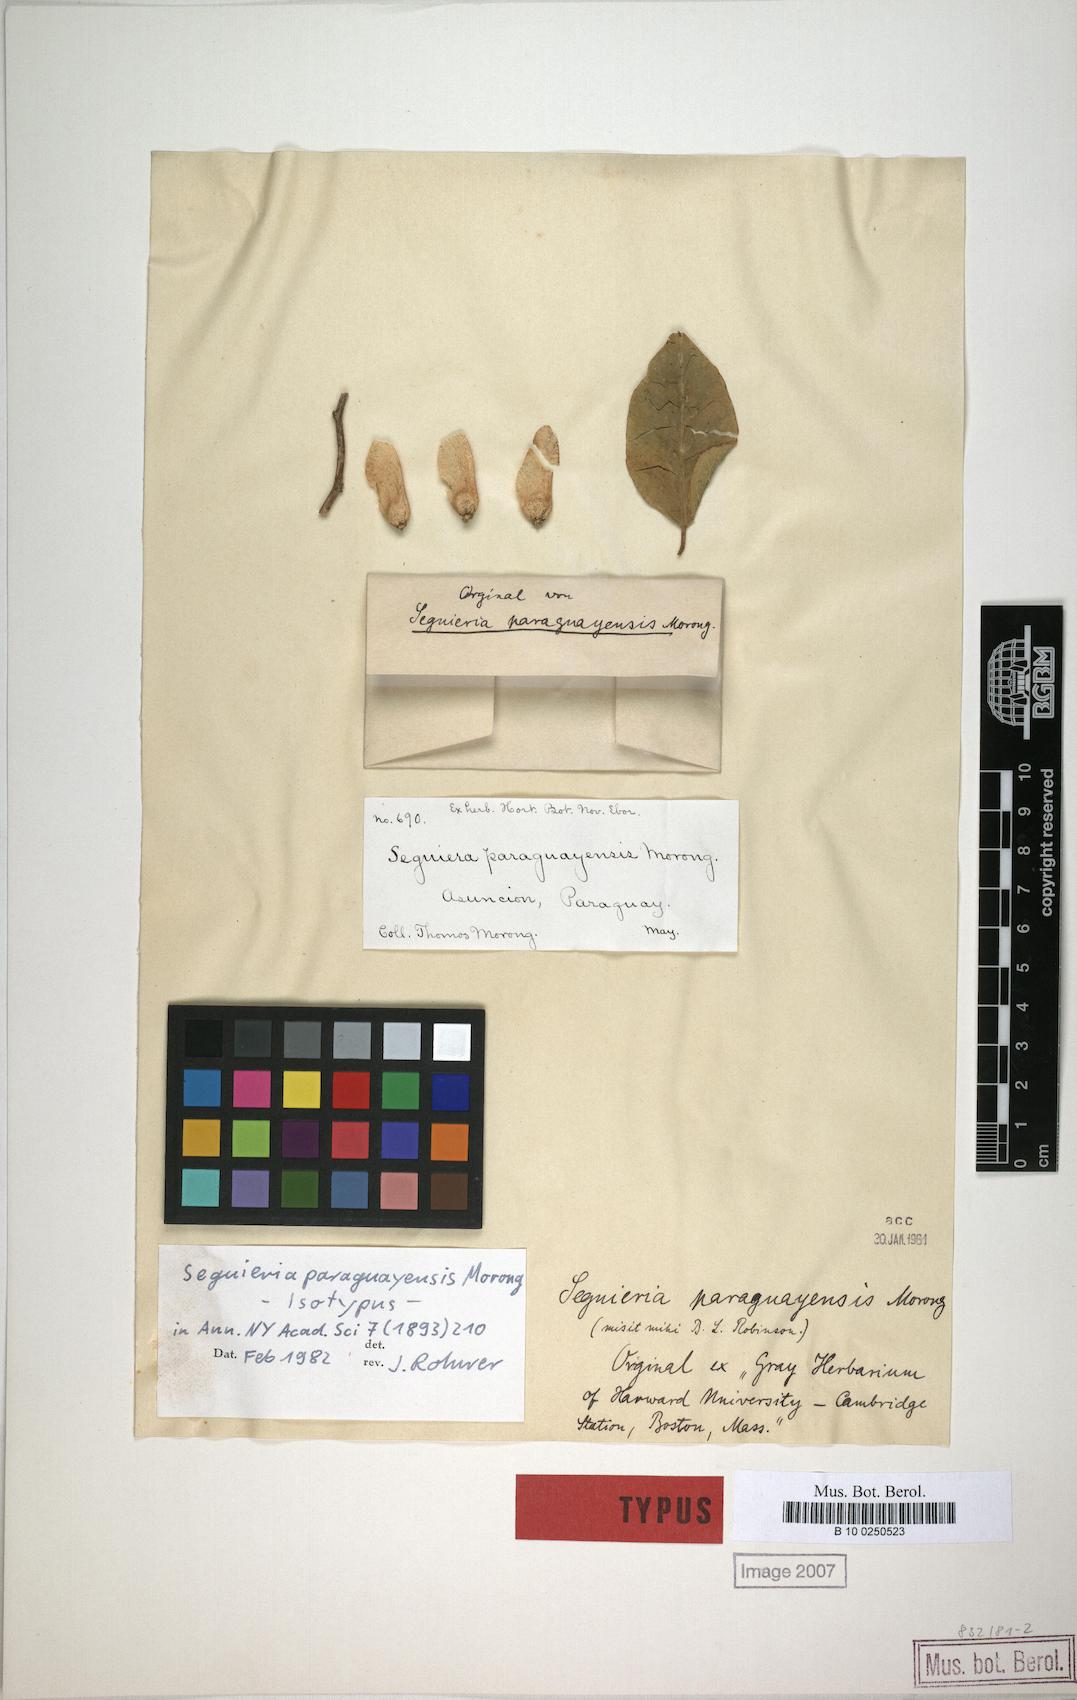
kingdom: Plantae
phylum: Tracheophyta
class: Magnoliopsida
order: Caryophyllales
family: Phytolaccaceae
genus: Seguieria
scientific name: Seguieria paraguayensis
